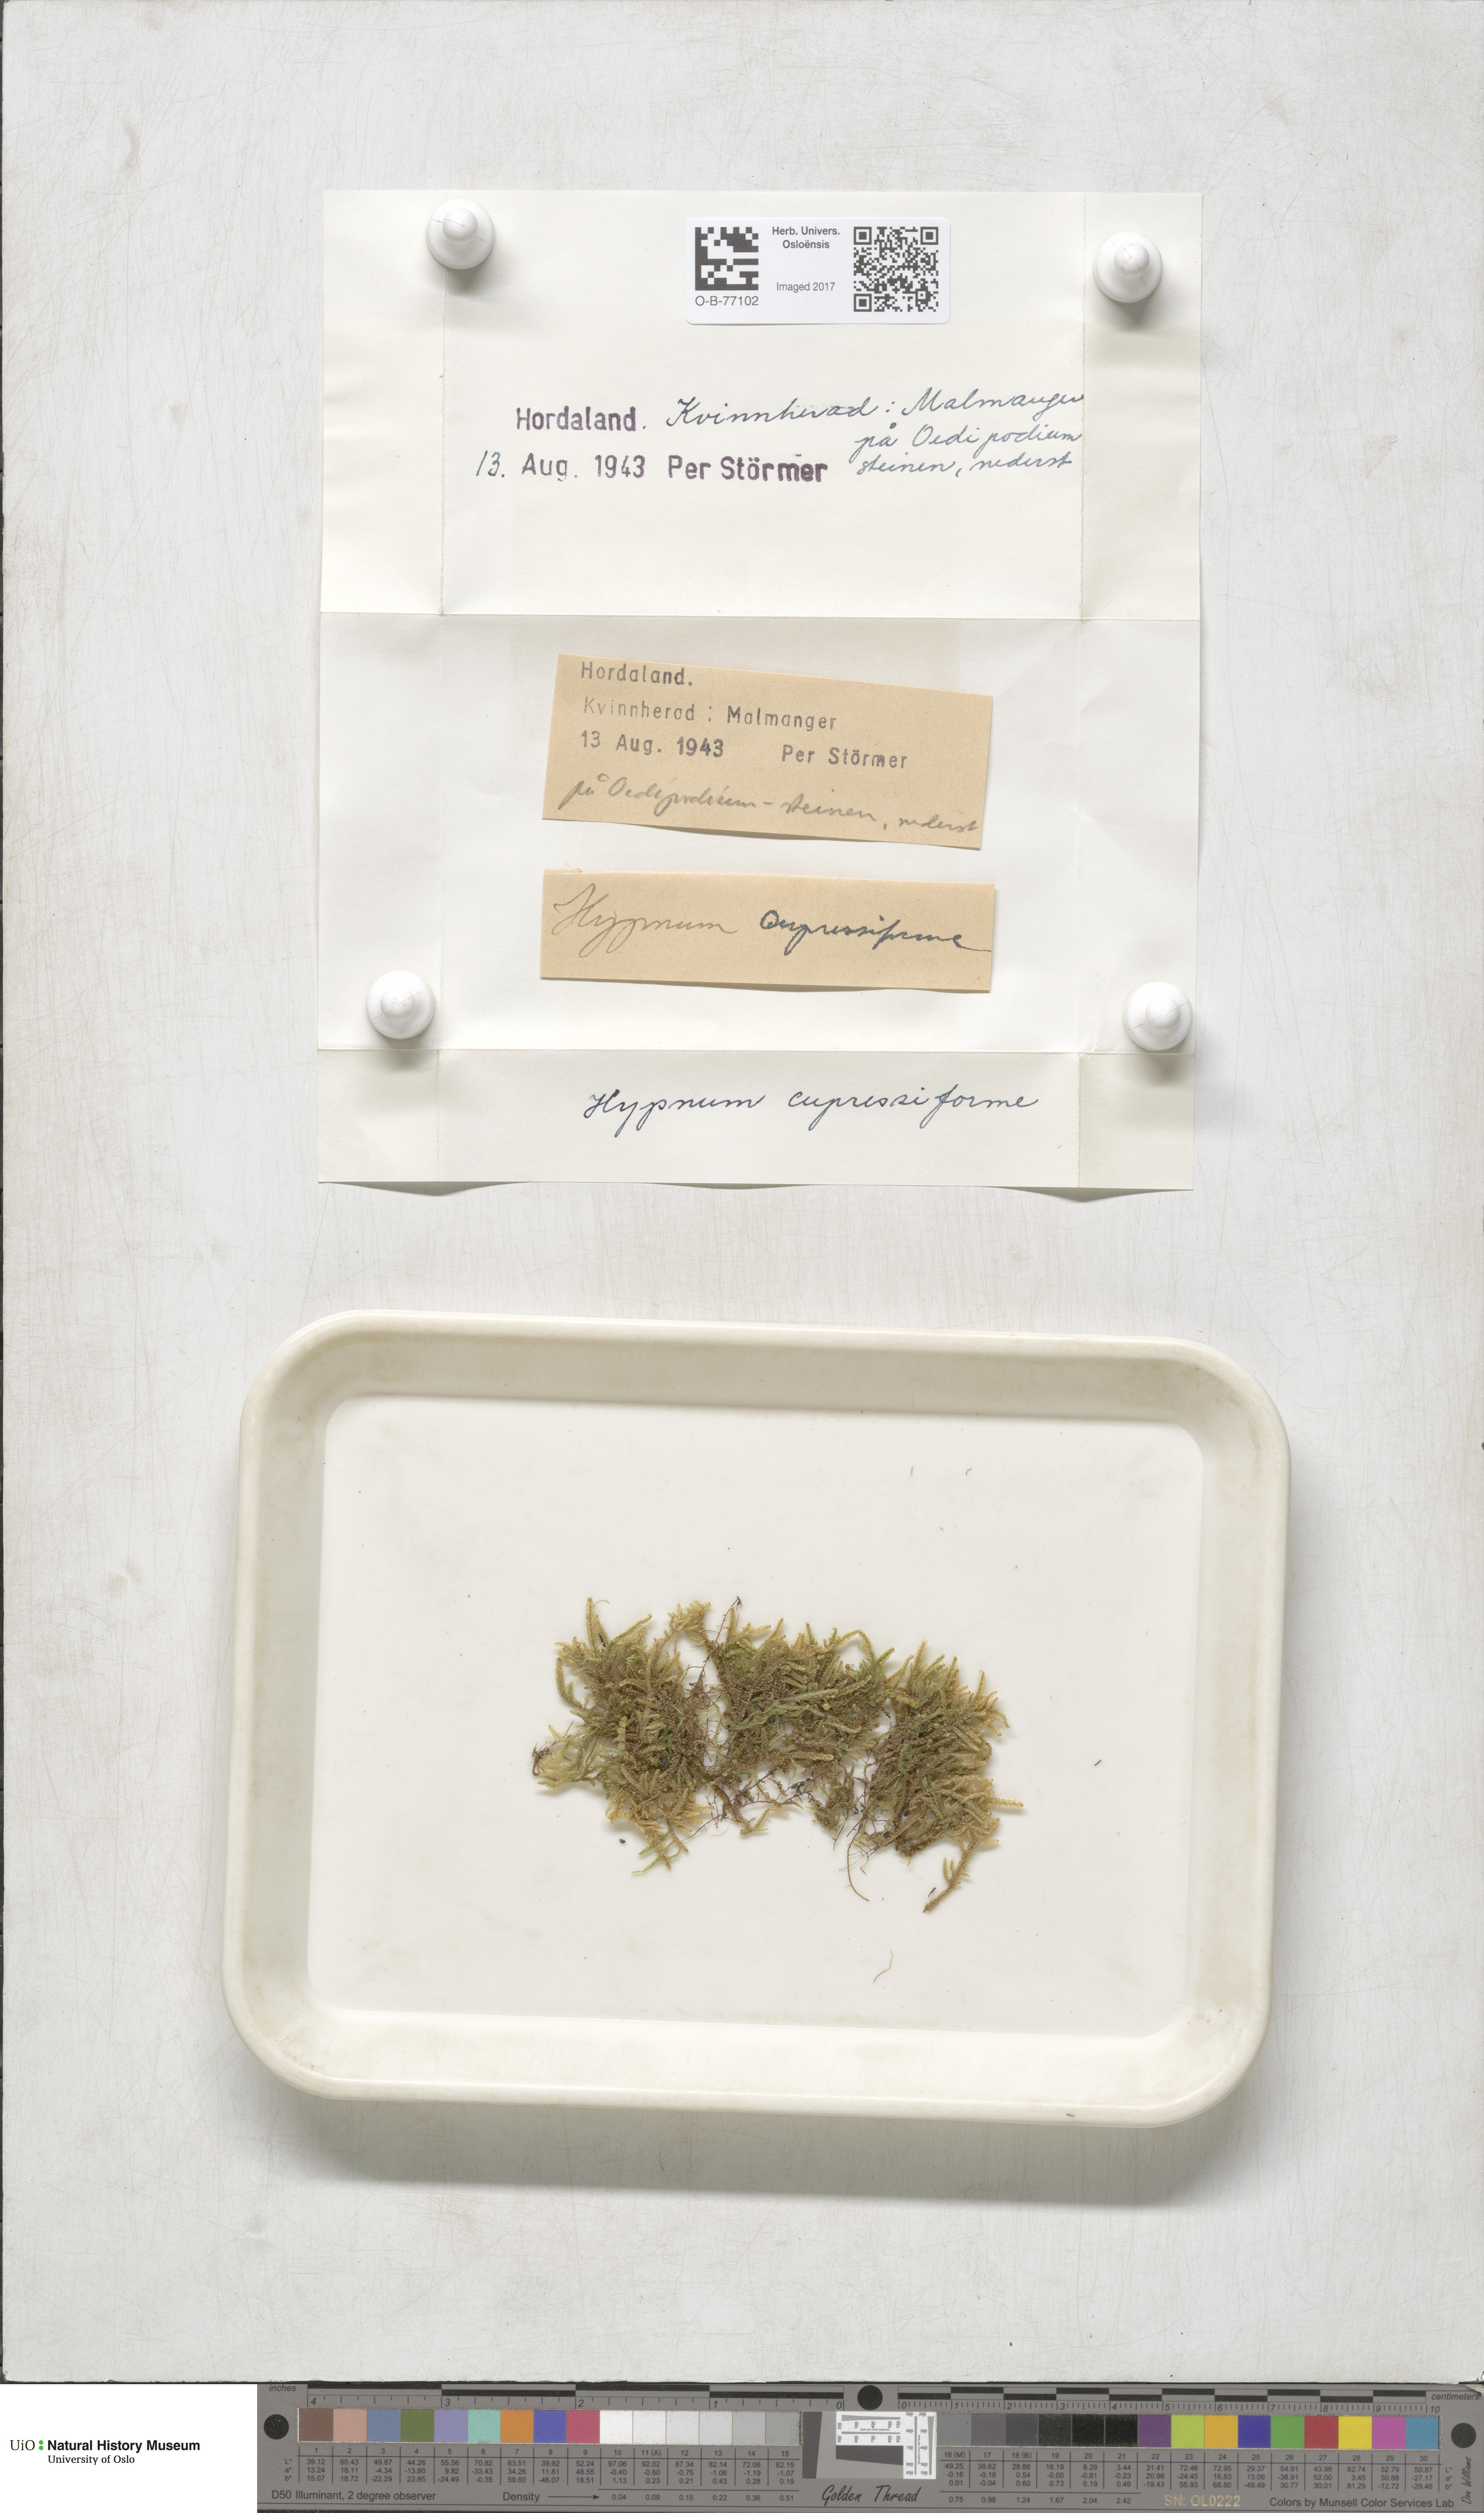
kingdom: Plantae
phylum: Bryophyta
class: Bryopsida
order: Hypnales
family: Hypnaceae
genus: Hypnum
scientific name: Hypnum cupressiforme
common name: Cypress-leaved plait-moss
